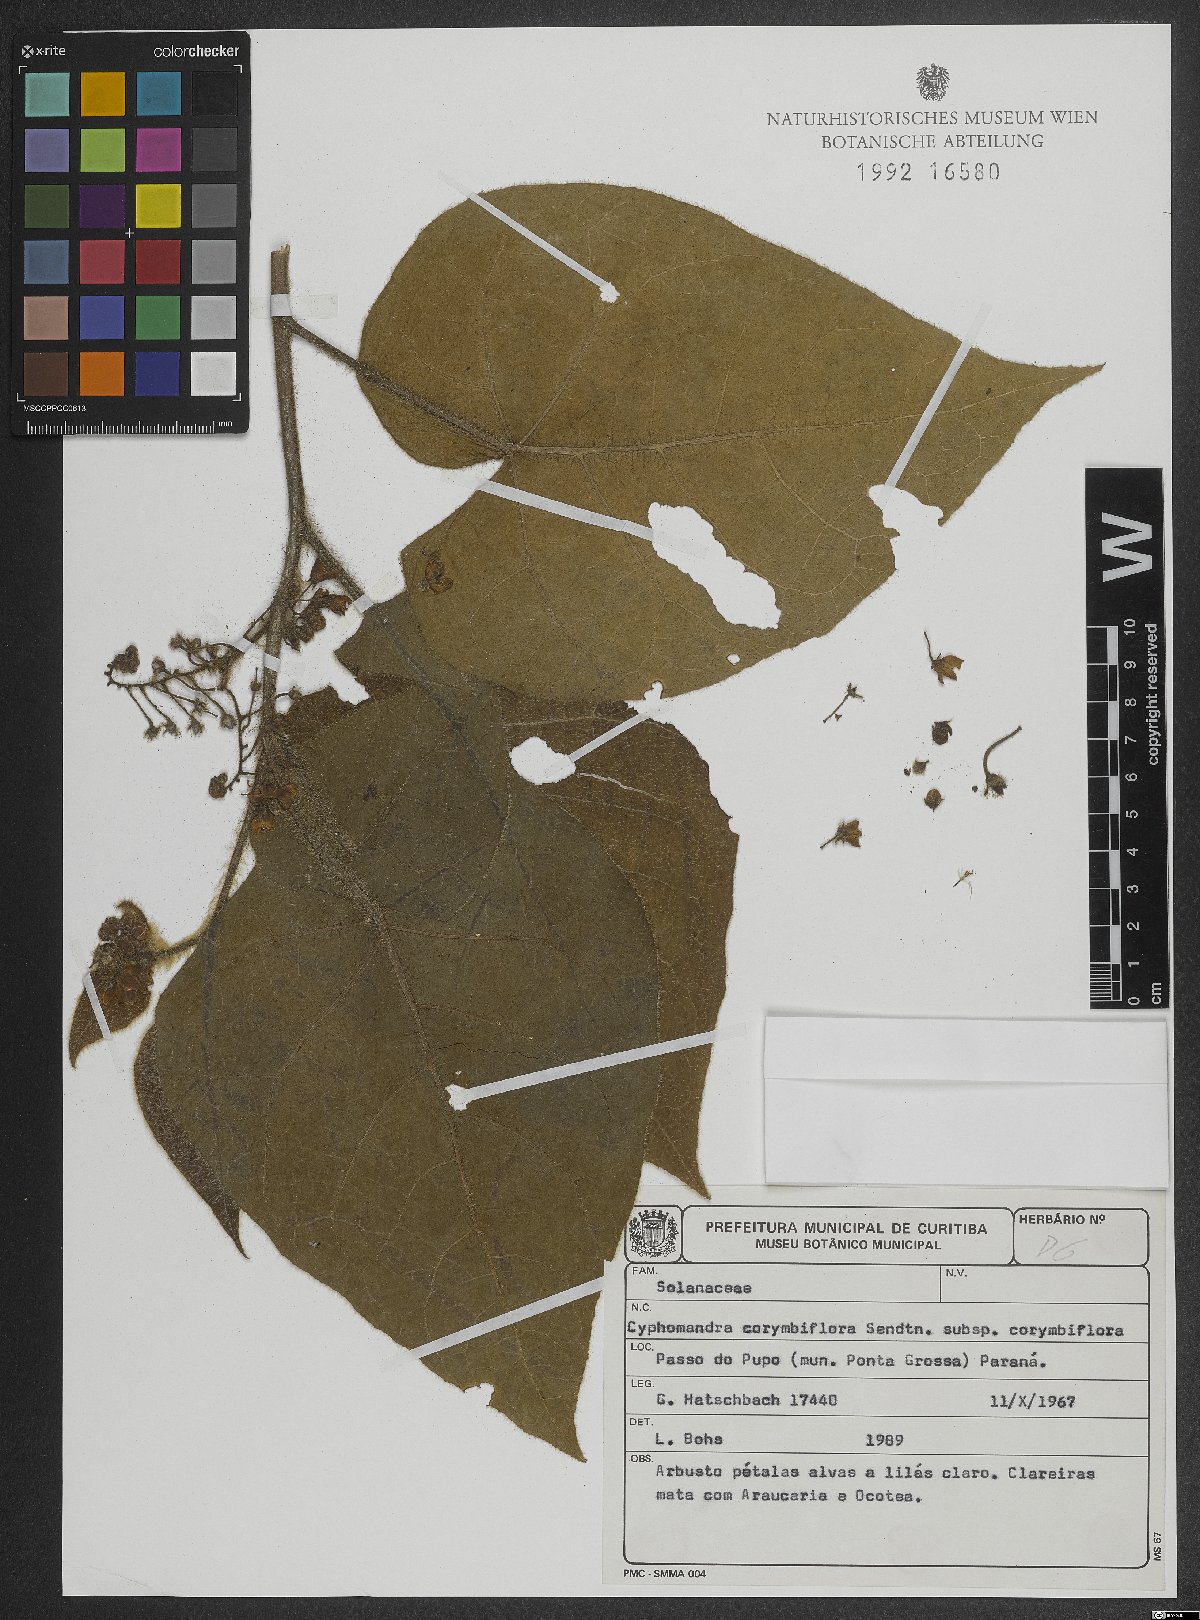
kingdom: Plantae
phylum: Tracheophyta
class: Magnoliopsida
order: Solanales
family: Solanaceae
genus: Solanum
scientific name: Solanum corymbiflorum
